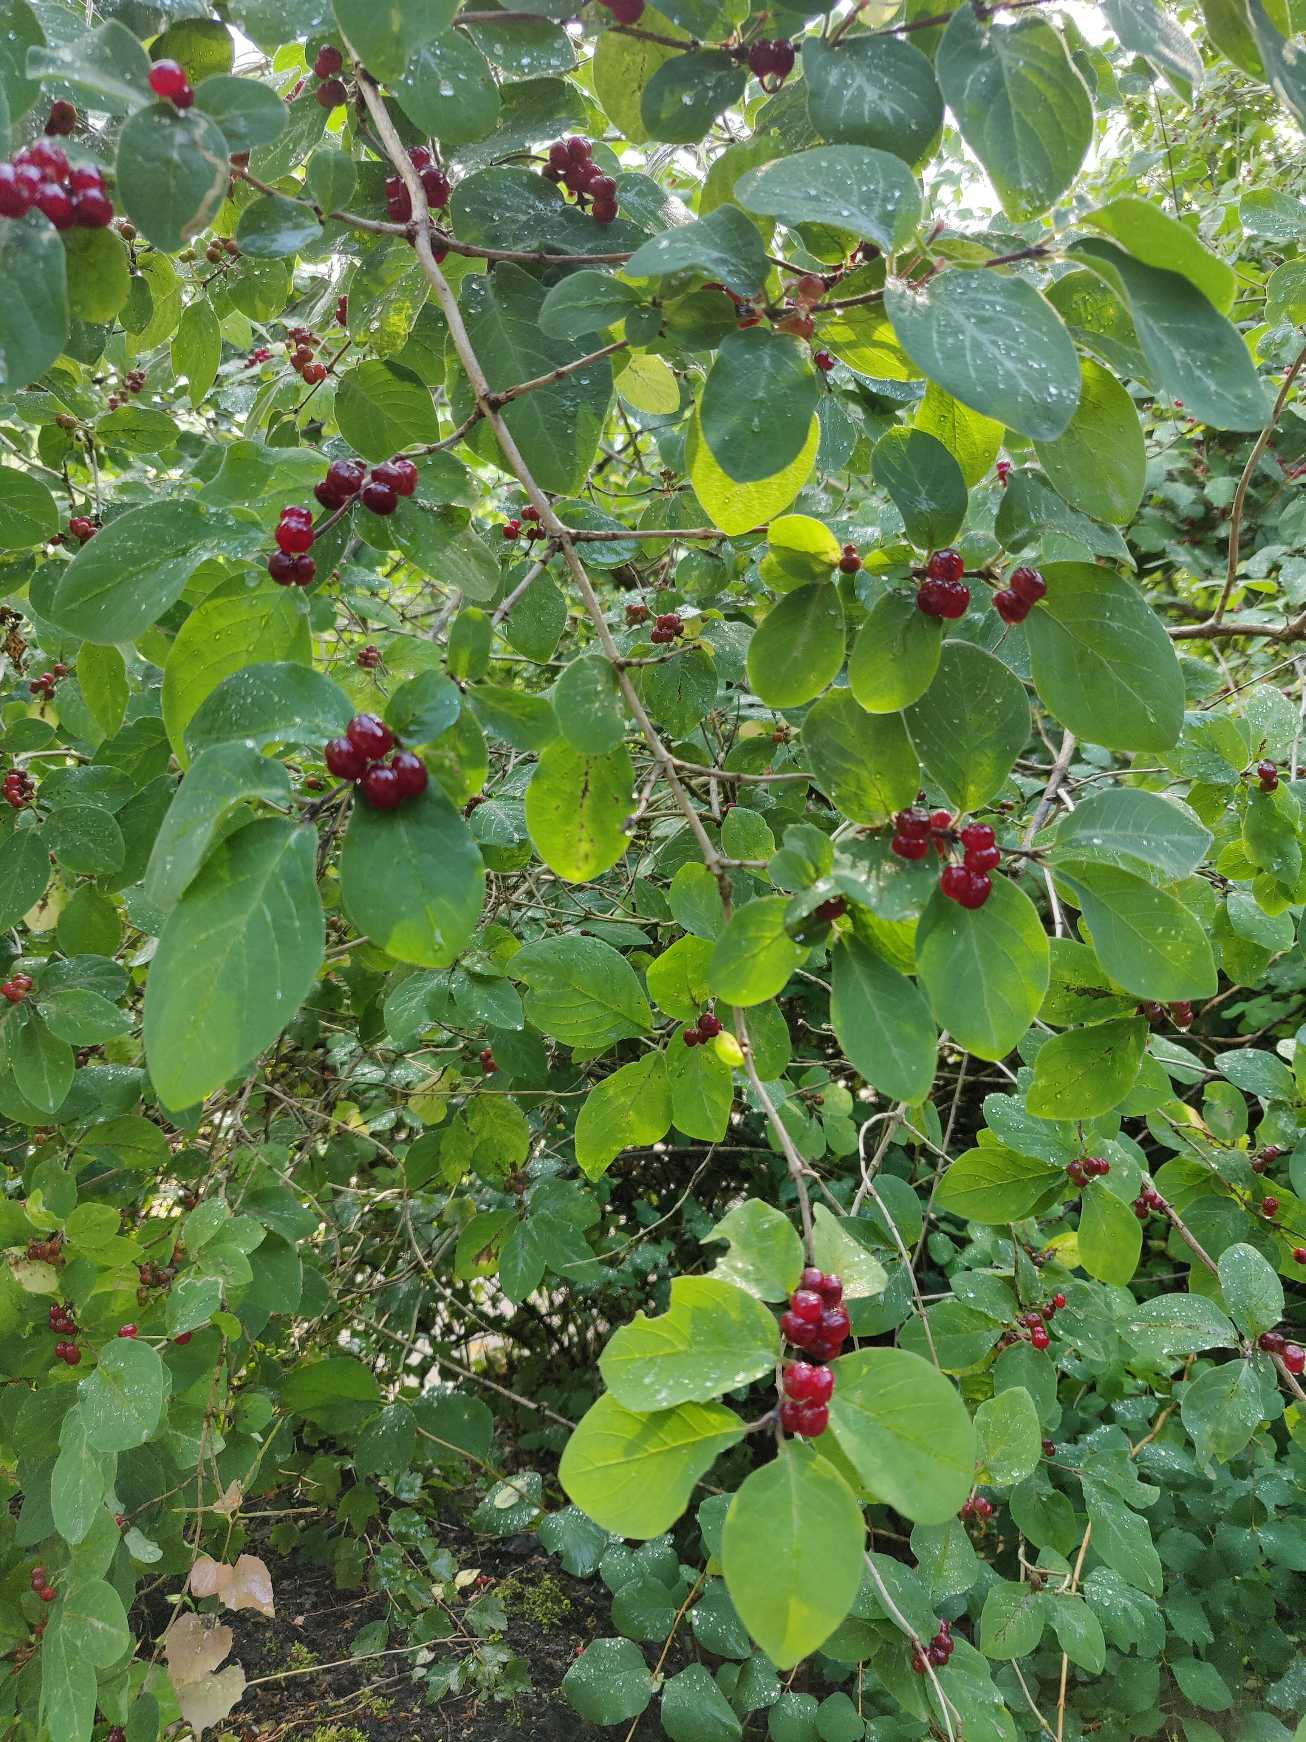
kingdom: Plantae
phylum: Tracheophyta
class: Magnoliopsida
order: Dipsacales
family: Caprifoliaceae
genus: Lonicera
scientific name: Lonicera xylosteum
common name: Dunet gedeblad
